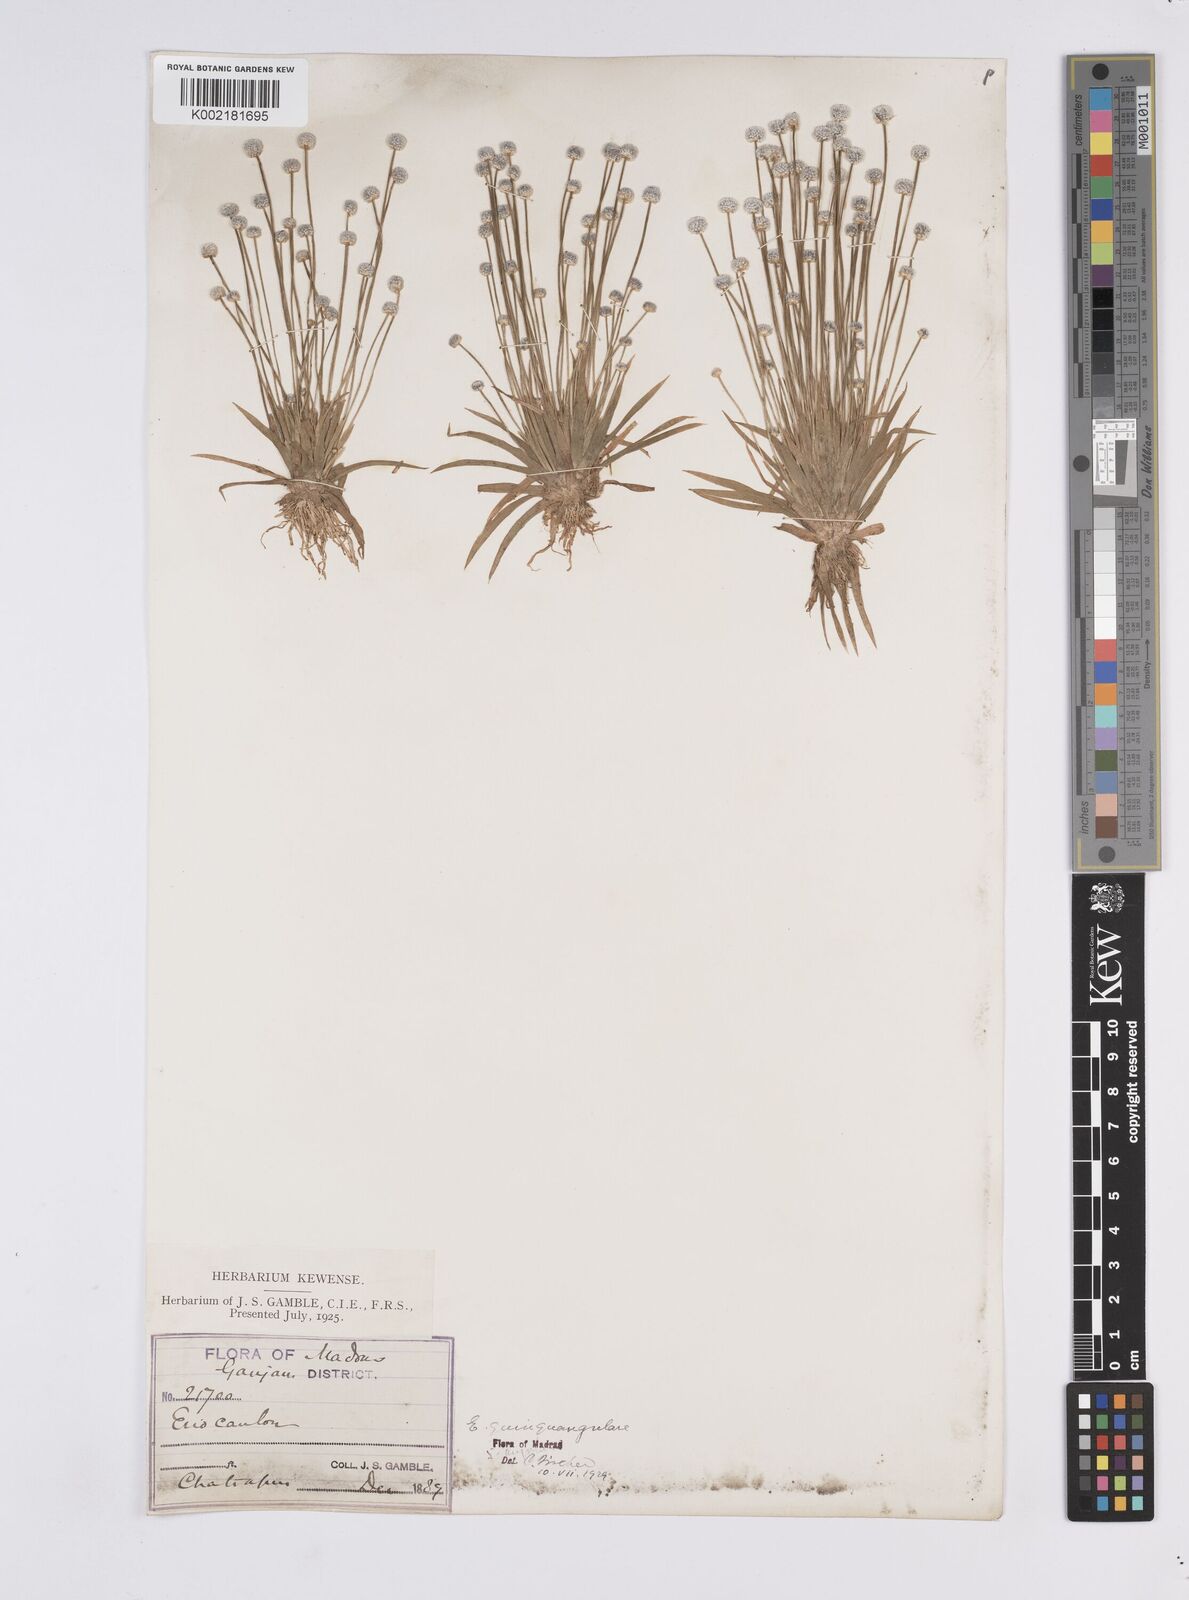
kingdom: Plantae
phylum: Tracheophyta
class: Liliopsida
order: Poales
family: Eriocaulaceae
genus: Eriocaulon
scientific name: Eriocaulon quinquangulare
